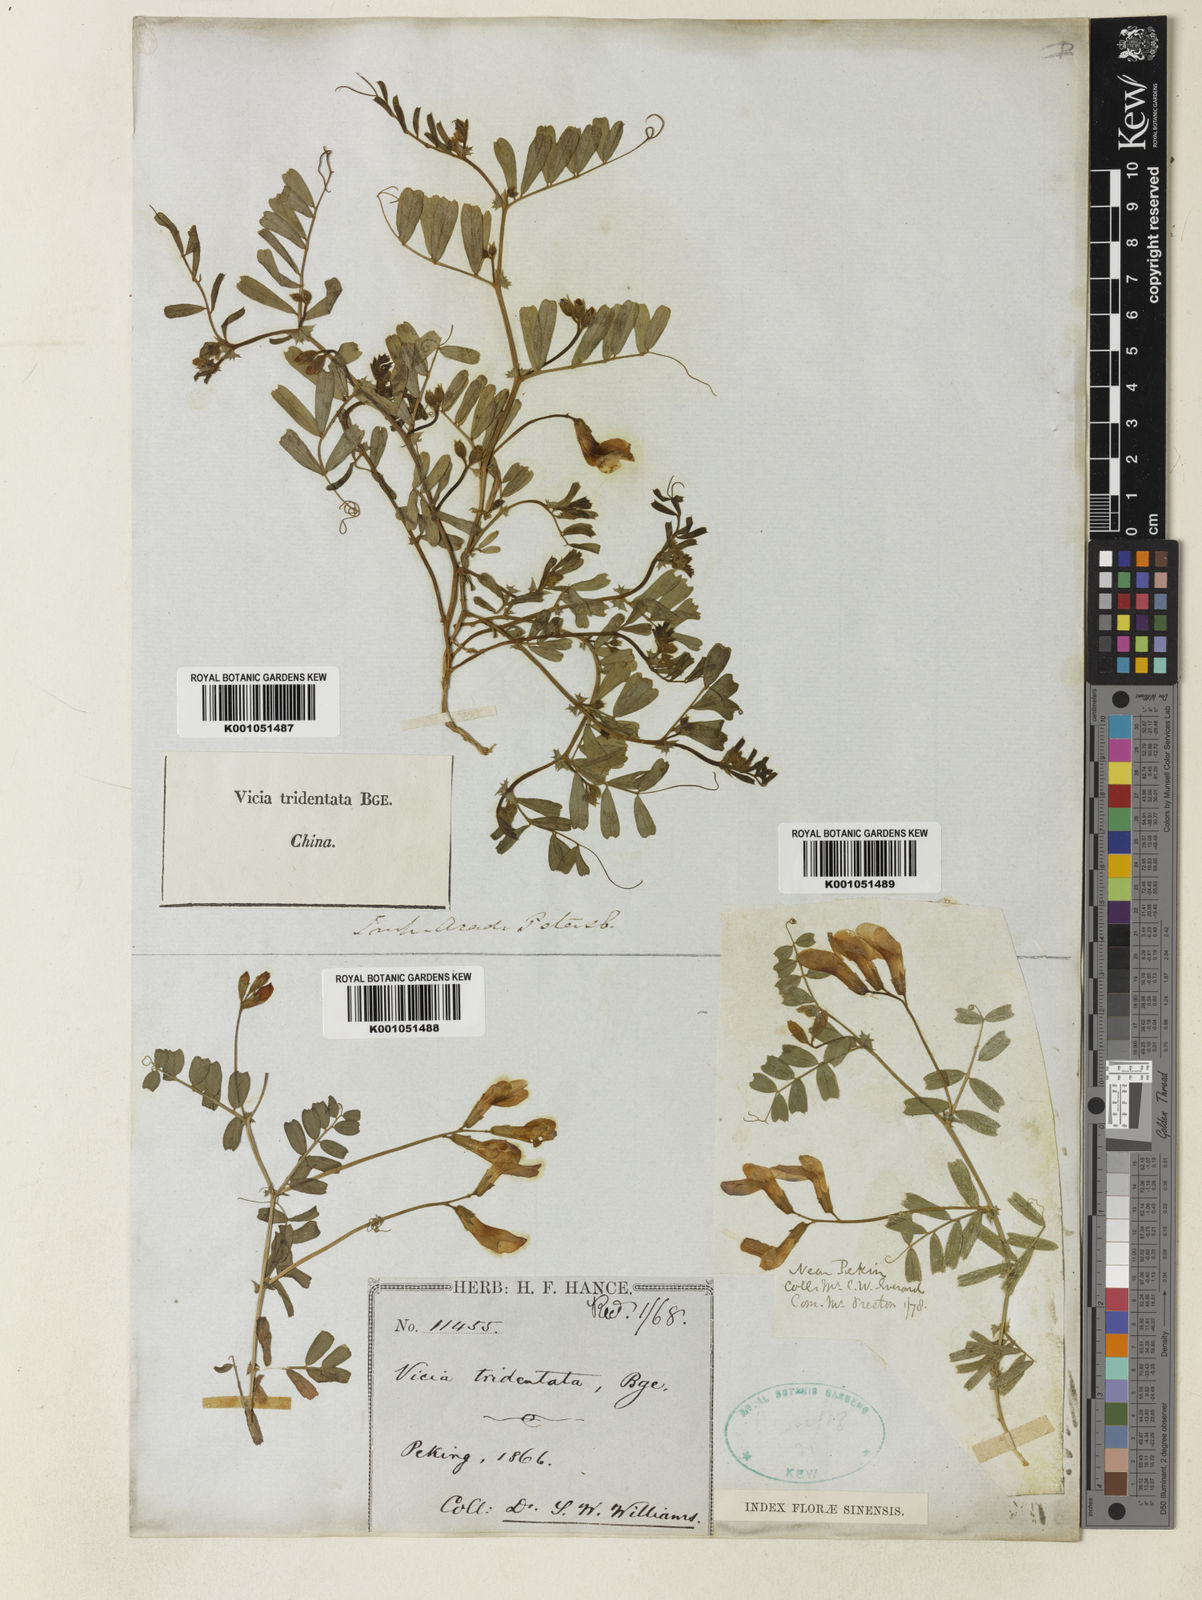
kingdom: Plantae
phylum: Tracheophyta
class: Magnoliopsida
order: Fabales
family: Fabaceae
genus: Vicia
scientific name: Vicia bungei
